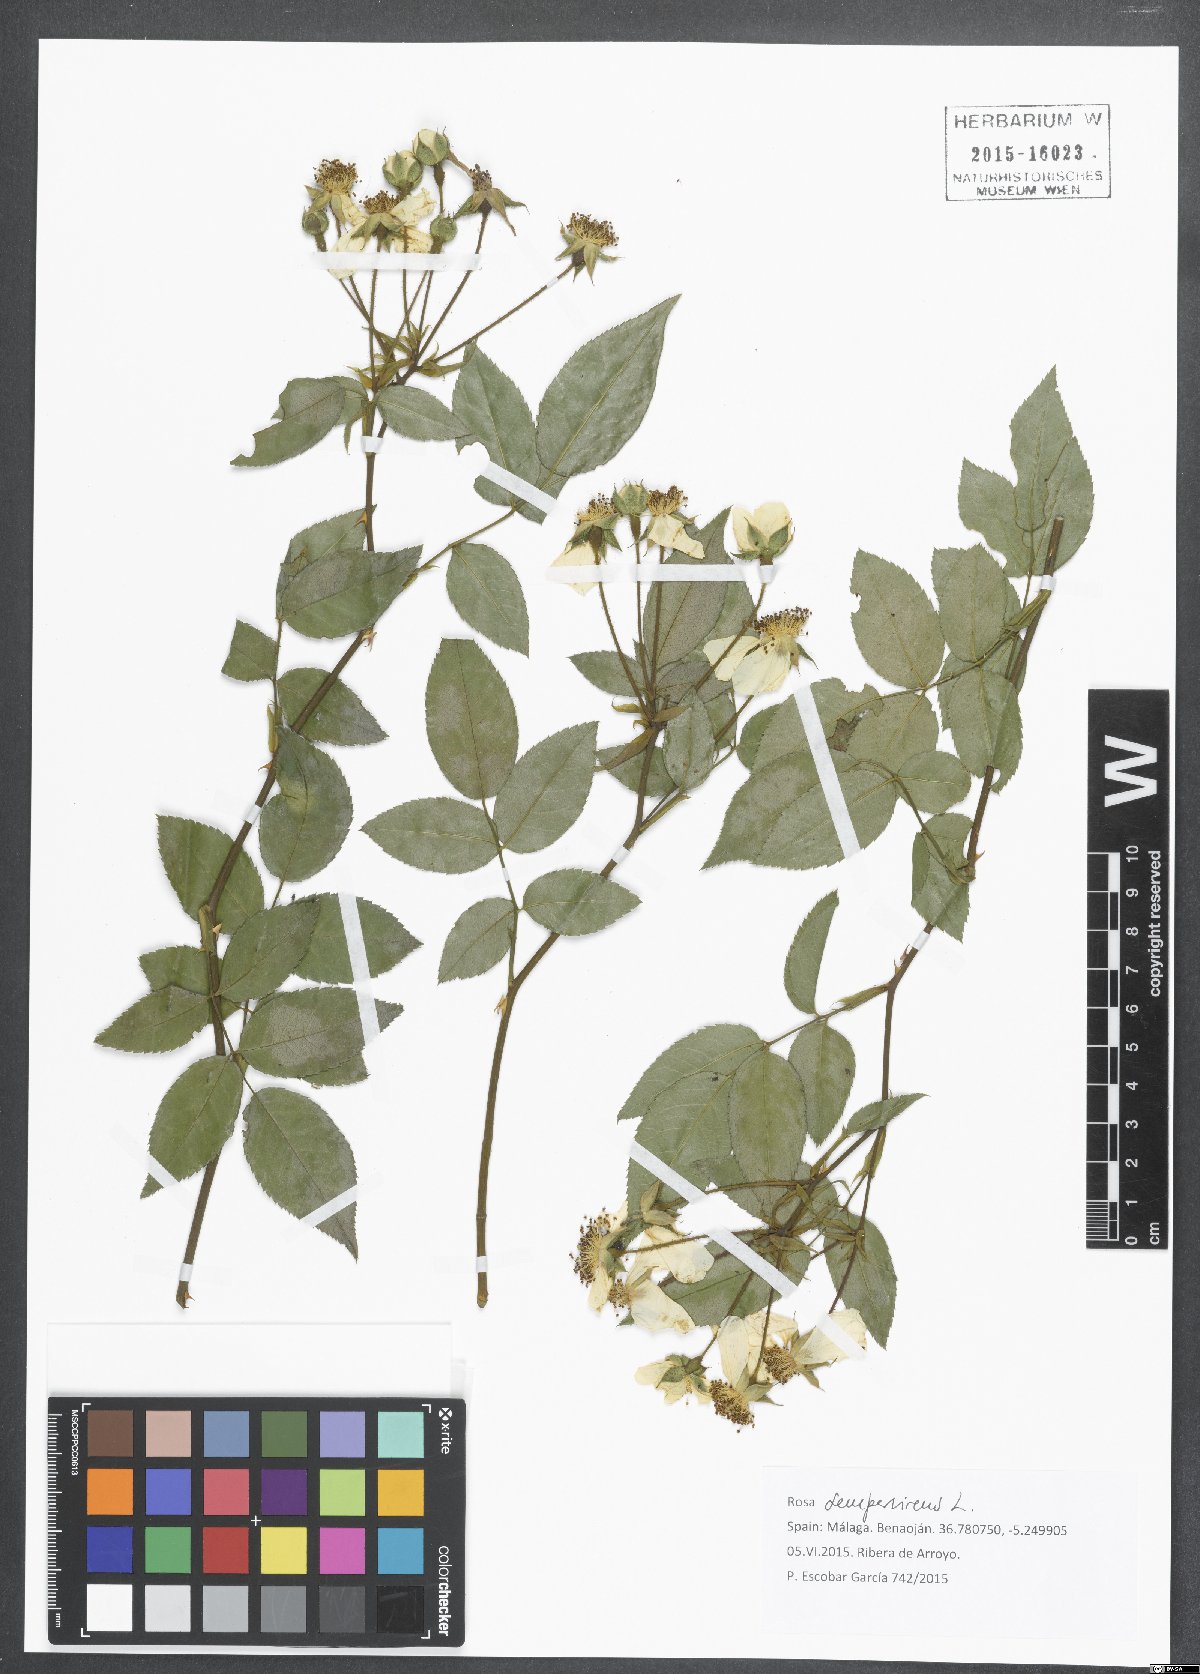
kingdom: Plantae
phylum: Tracheophyta
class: Magnoliopsida
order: Rosales
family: Rosaceae
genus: Rosa
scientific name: Rosa sempervirens
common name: Evergreen rose
